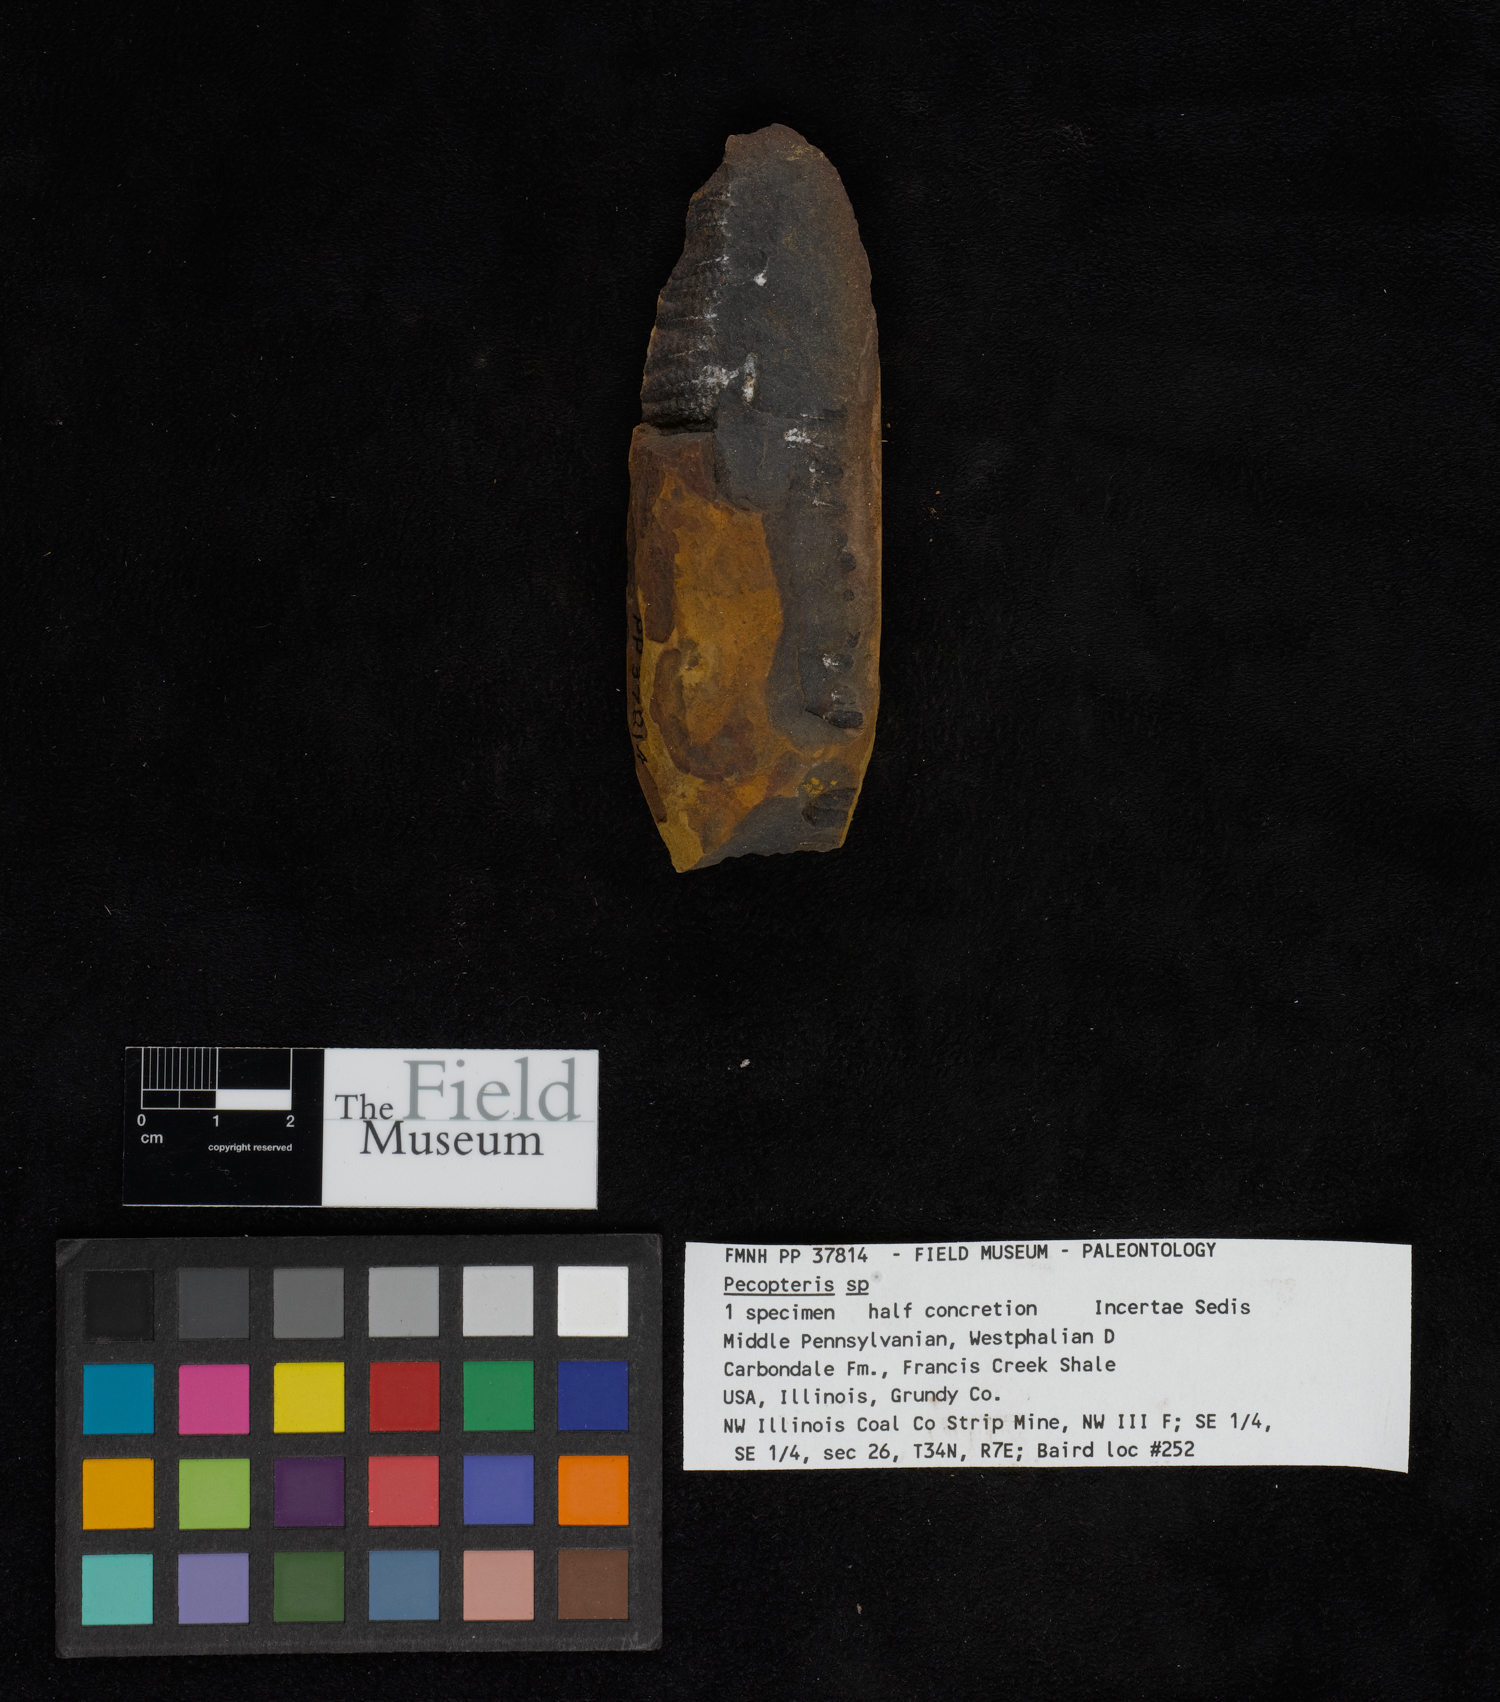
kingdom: Plantae
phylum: Tracheophyta
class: Polypodiopsida
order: Marattiales
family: Asterothecaceae
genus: Pecopteris
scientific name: Pecopteris
